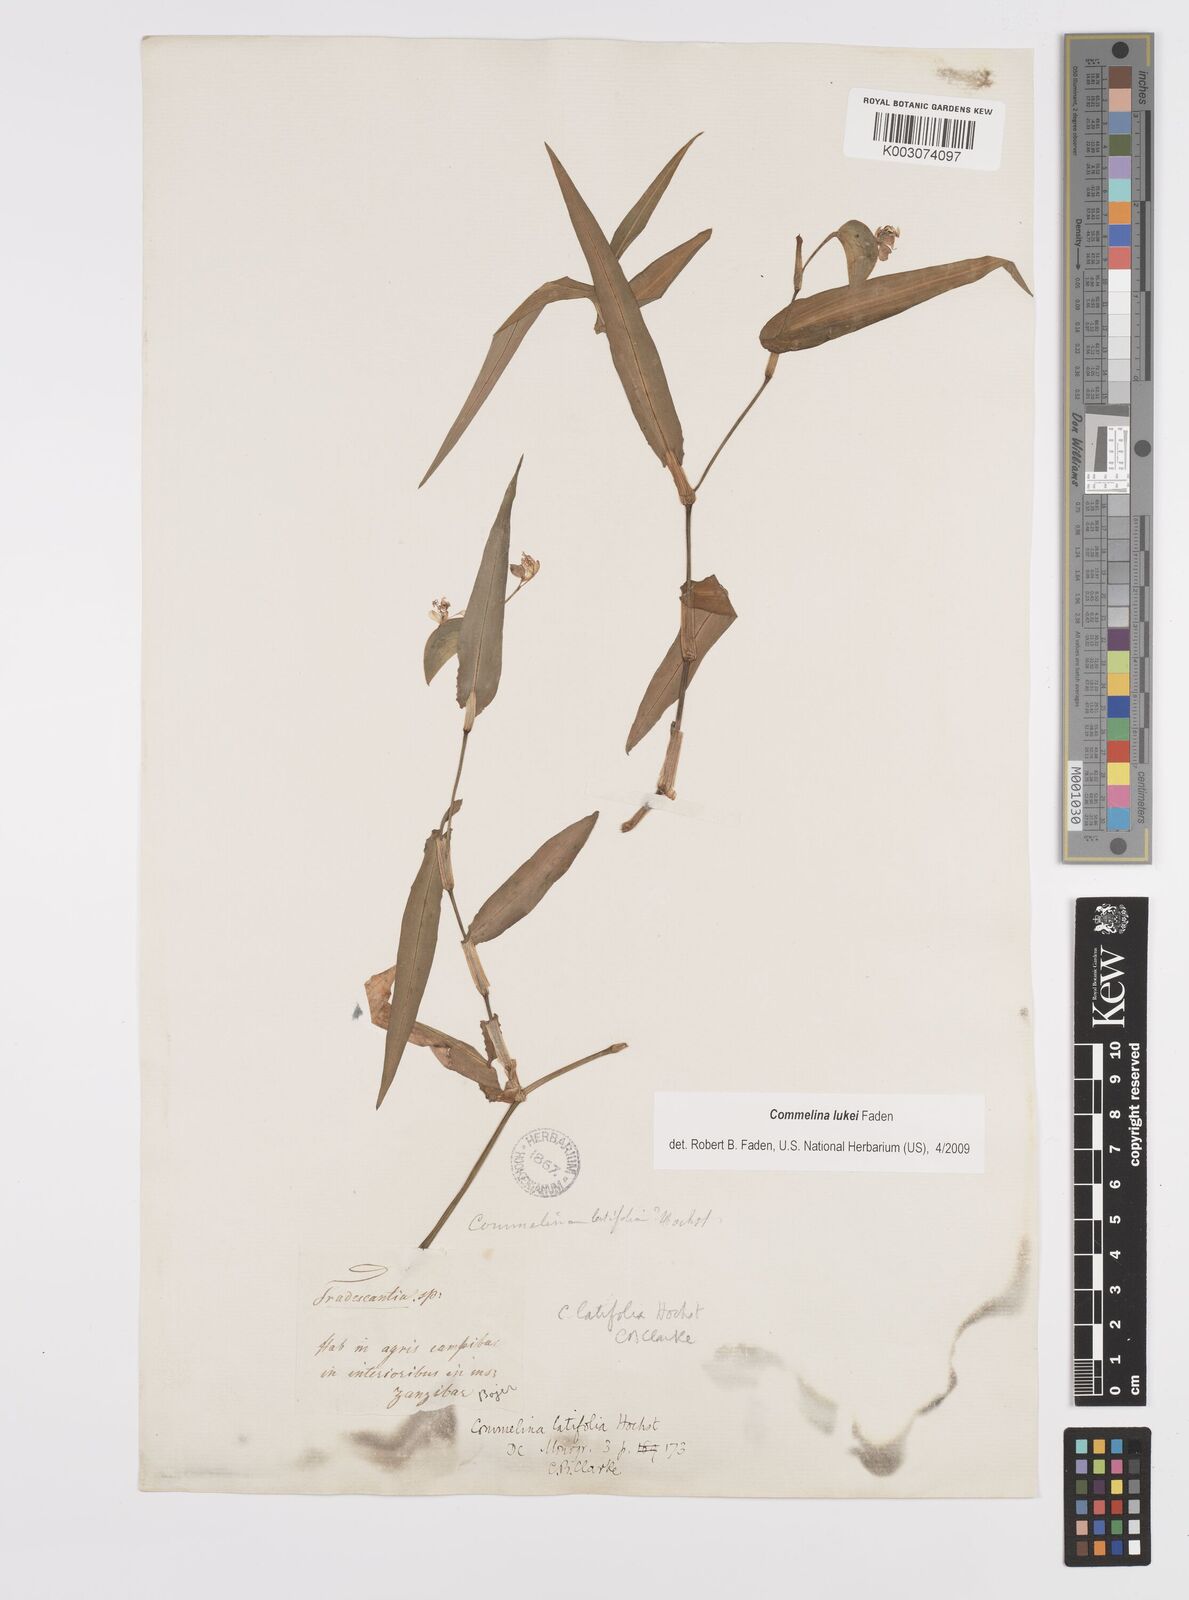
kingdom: Plantae
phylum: Tracheophyta
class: Liliopsida
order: Commelinales
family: Commelinaceae
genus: Commelina
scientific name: Commelina lukei
